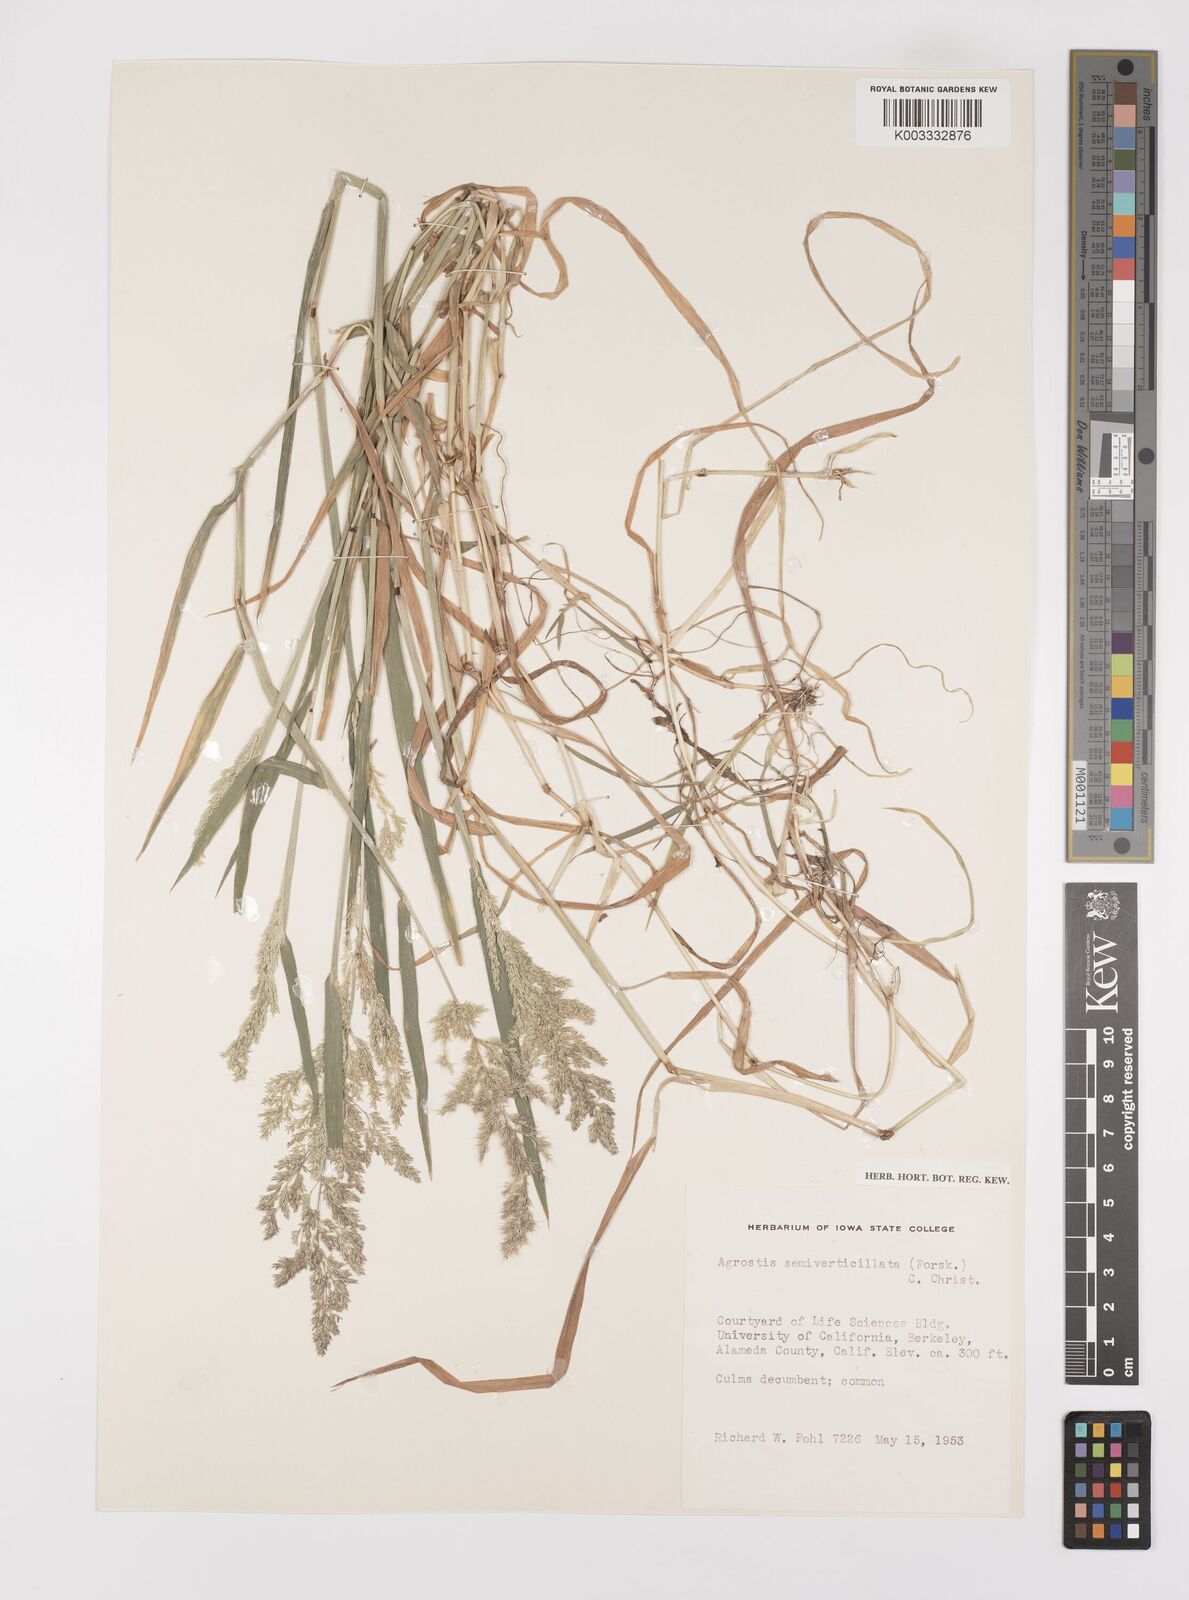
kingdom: Plantae
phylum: Tracheophyta
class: Liliopsida
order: Poales
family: Poaceae
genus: Polypogon
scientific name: Polypogon viridis
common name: Water bent
